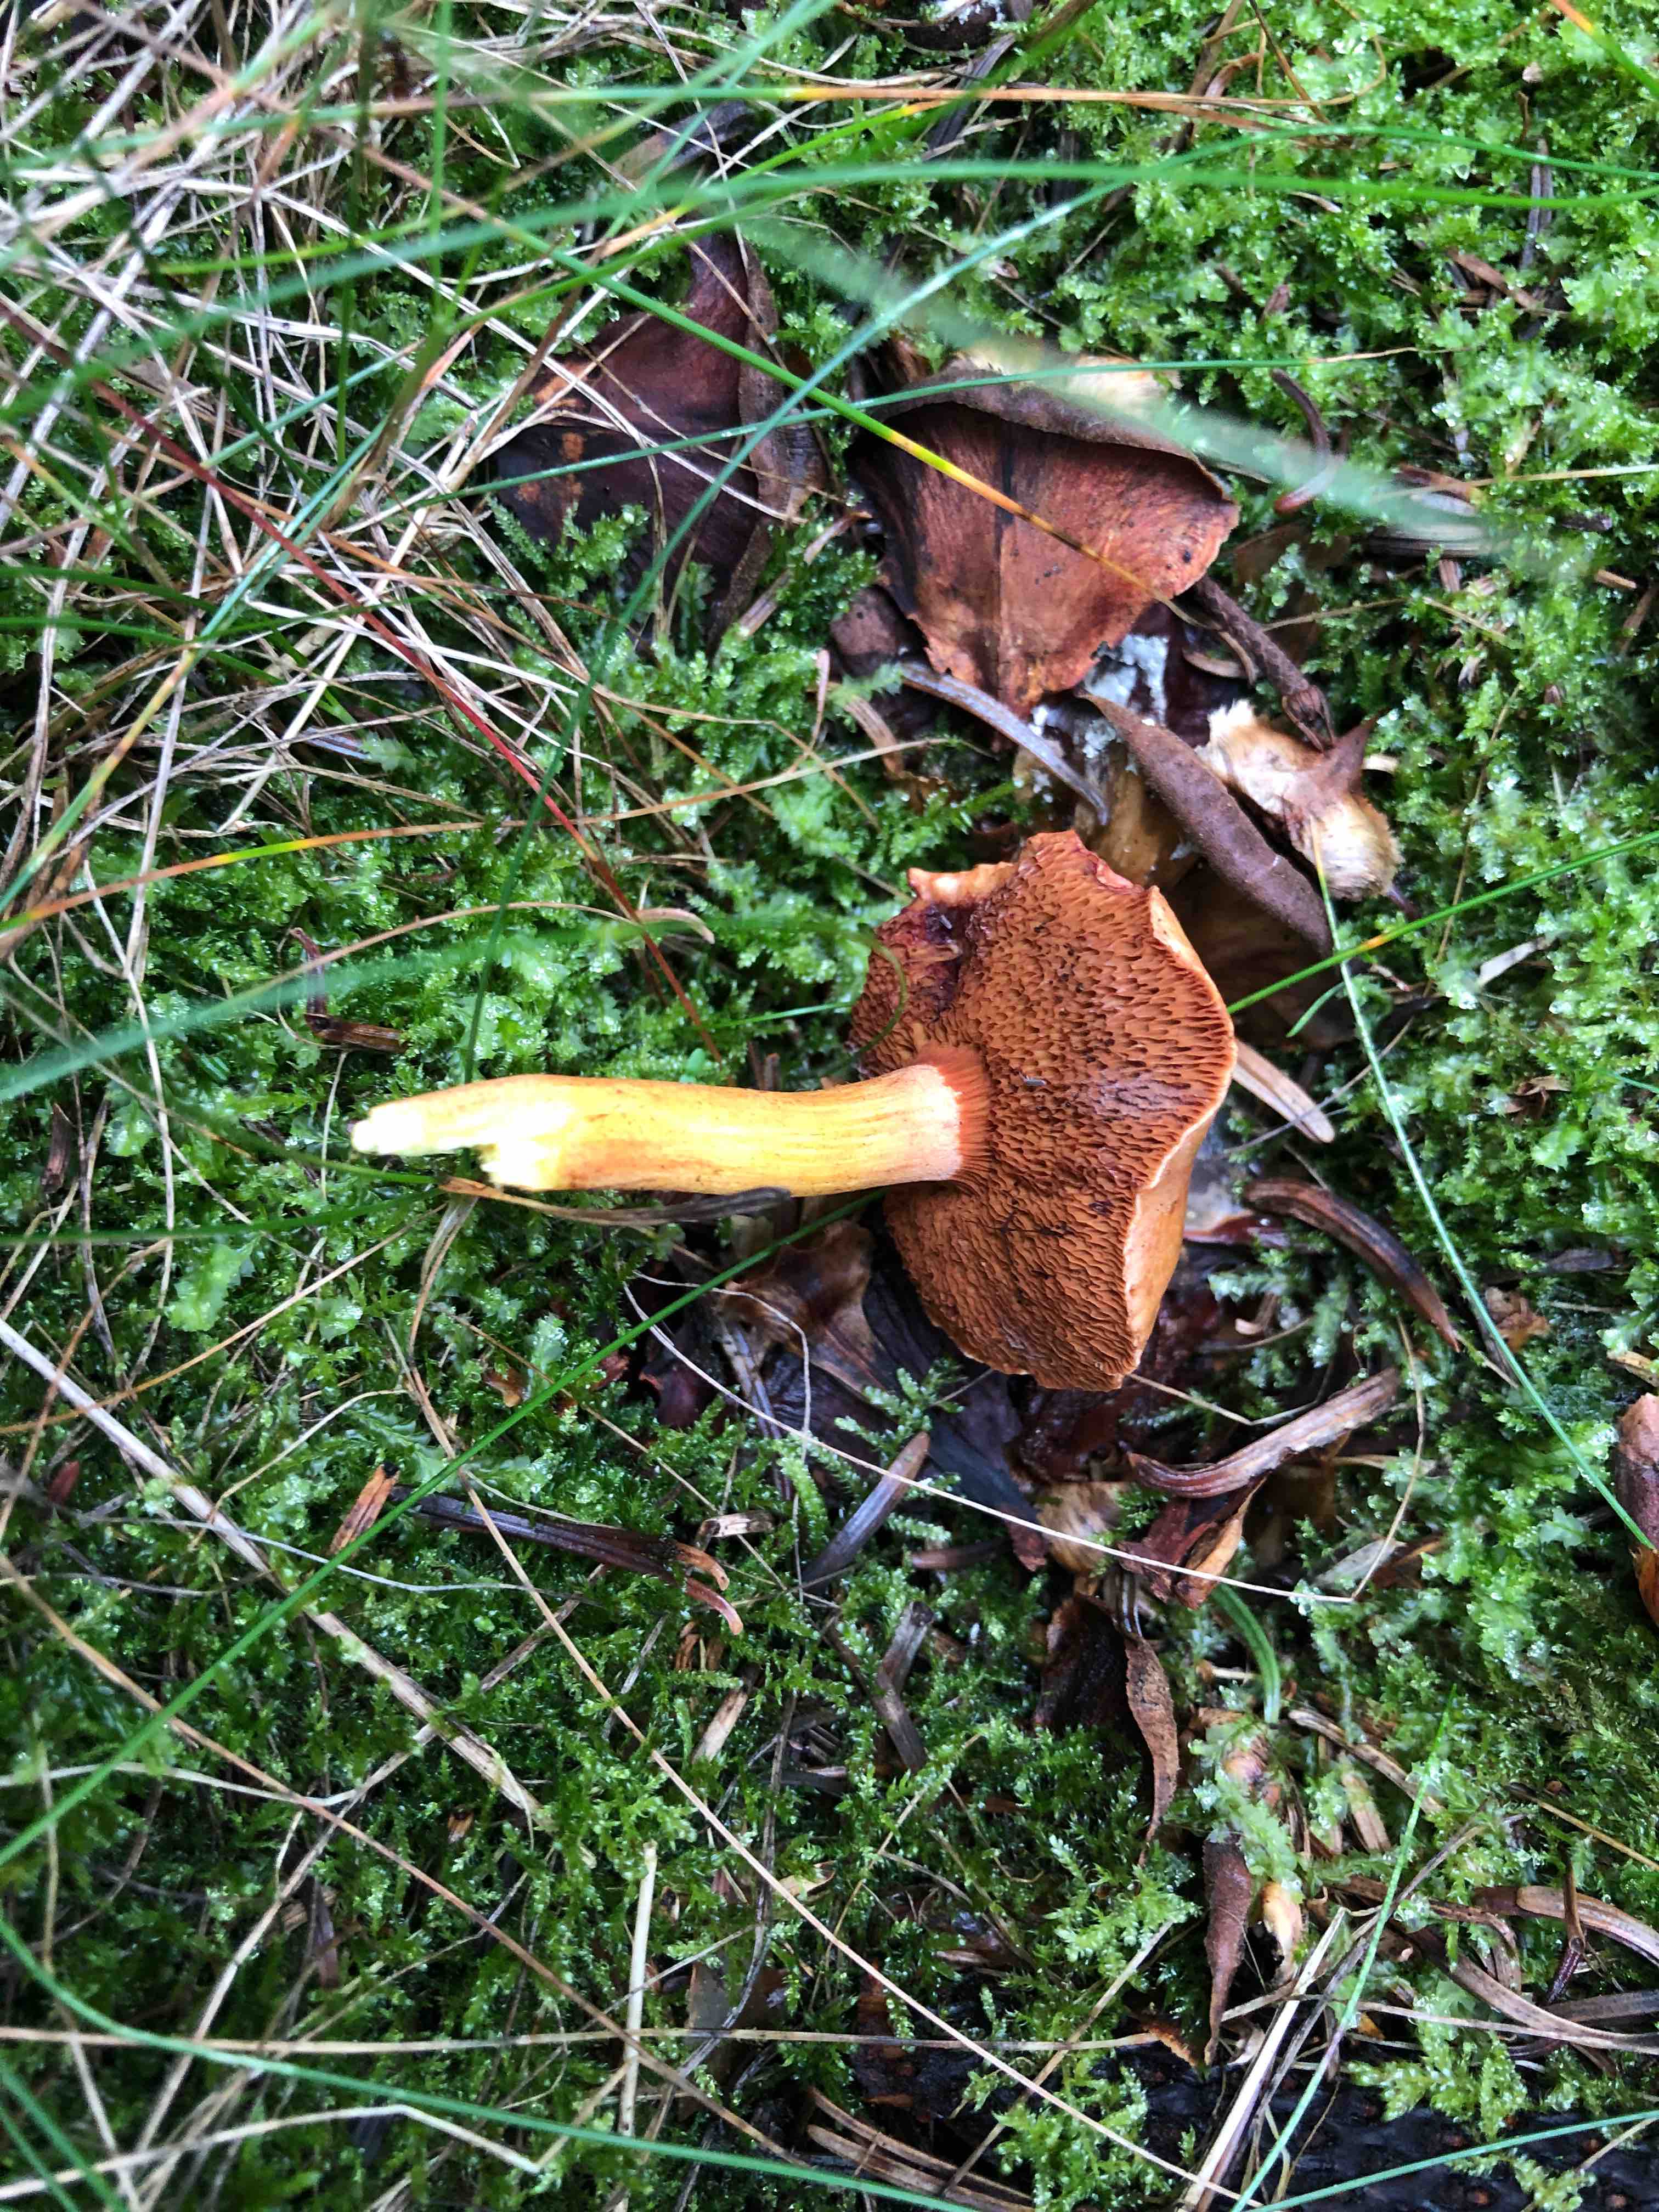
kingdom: Fungi
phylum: Basidiomycota
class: Agaricomycetes
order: Boletales
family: Boletaceae
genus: Chalciporus
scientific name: Chalciporus piperatus
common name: peberrørhat
